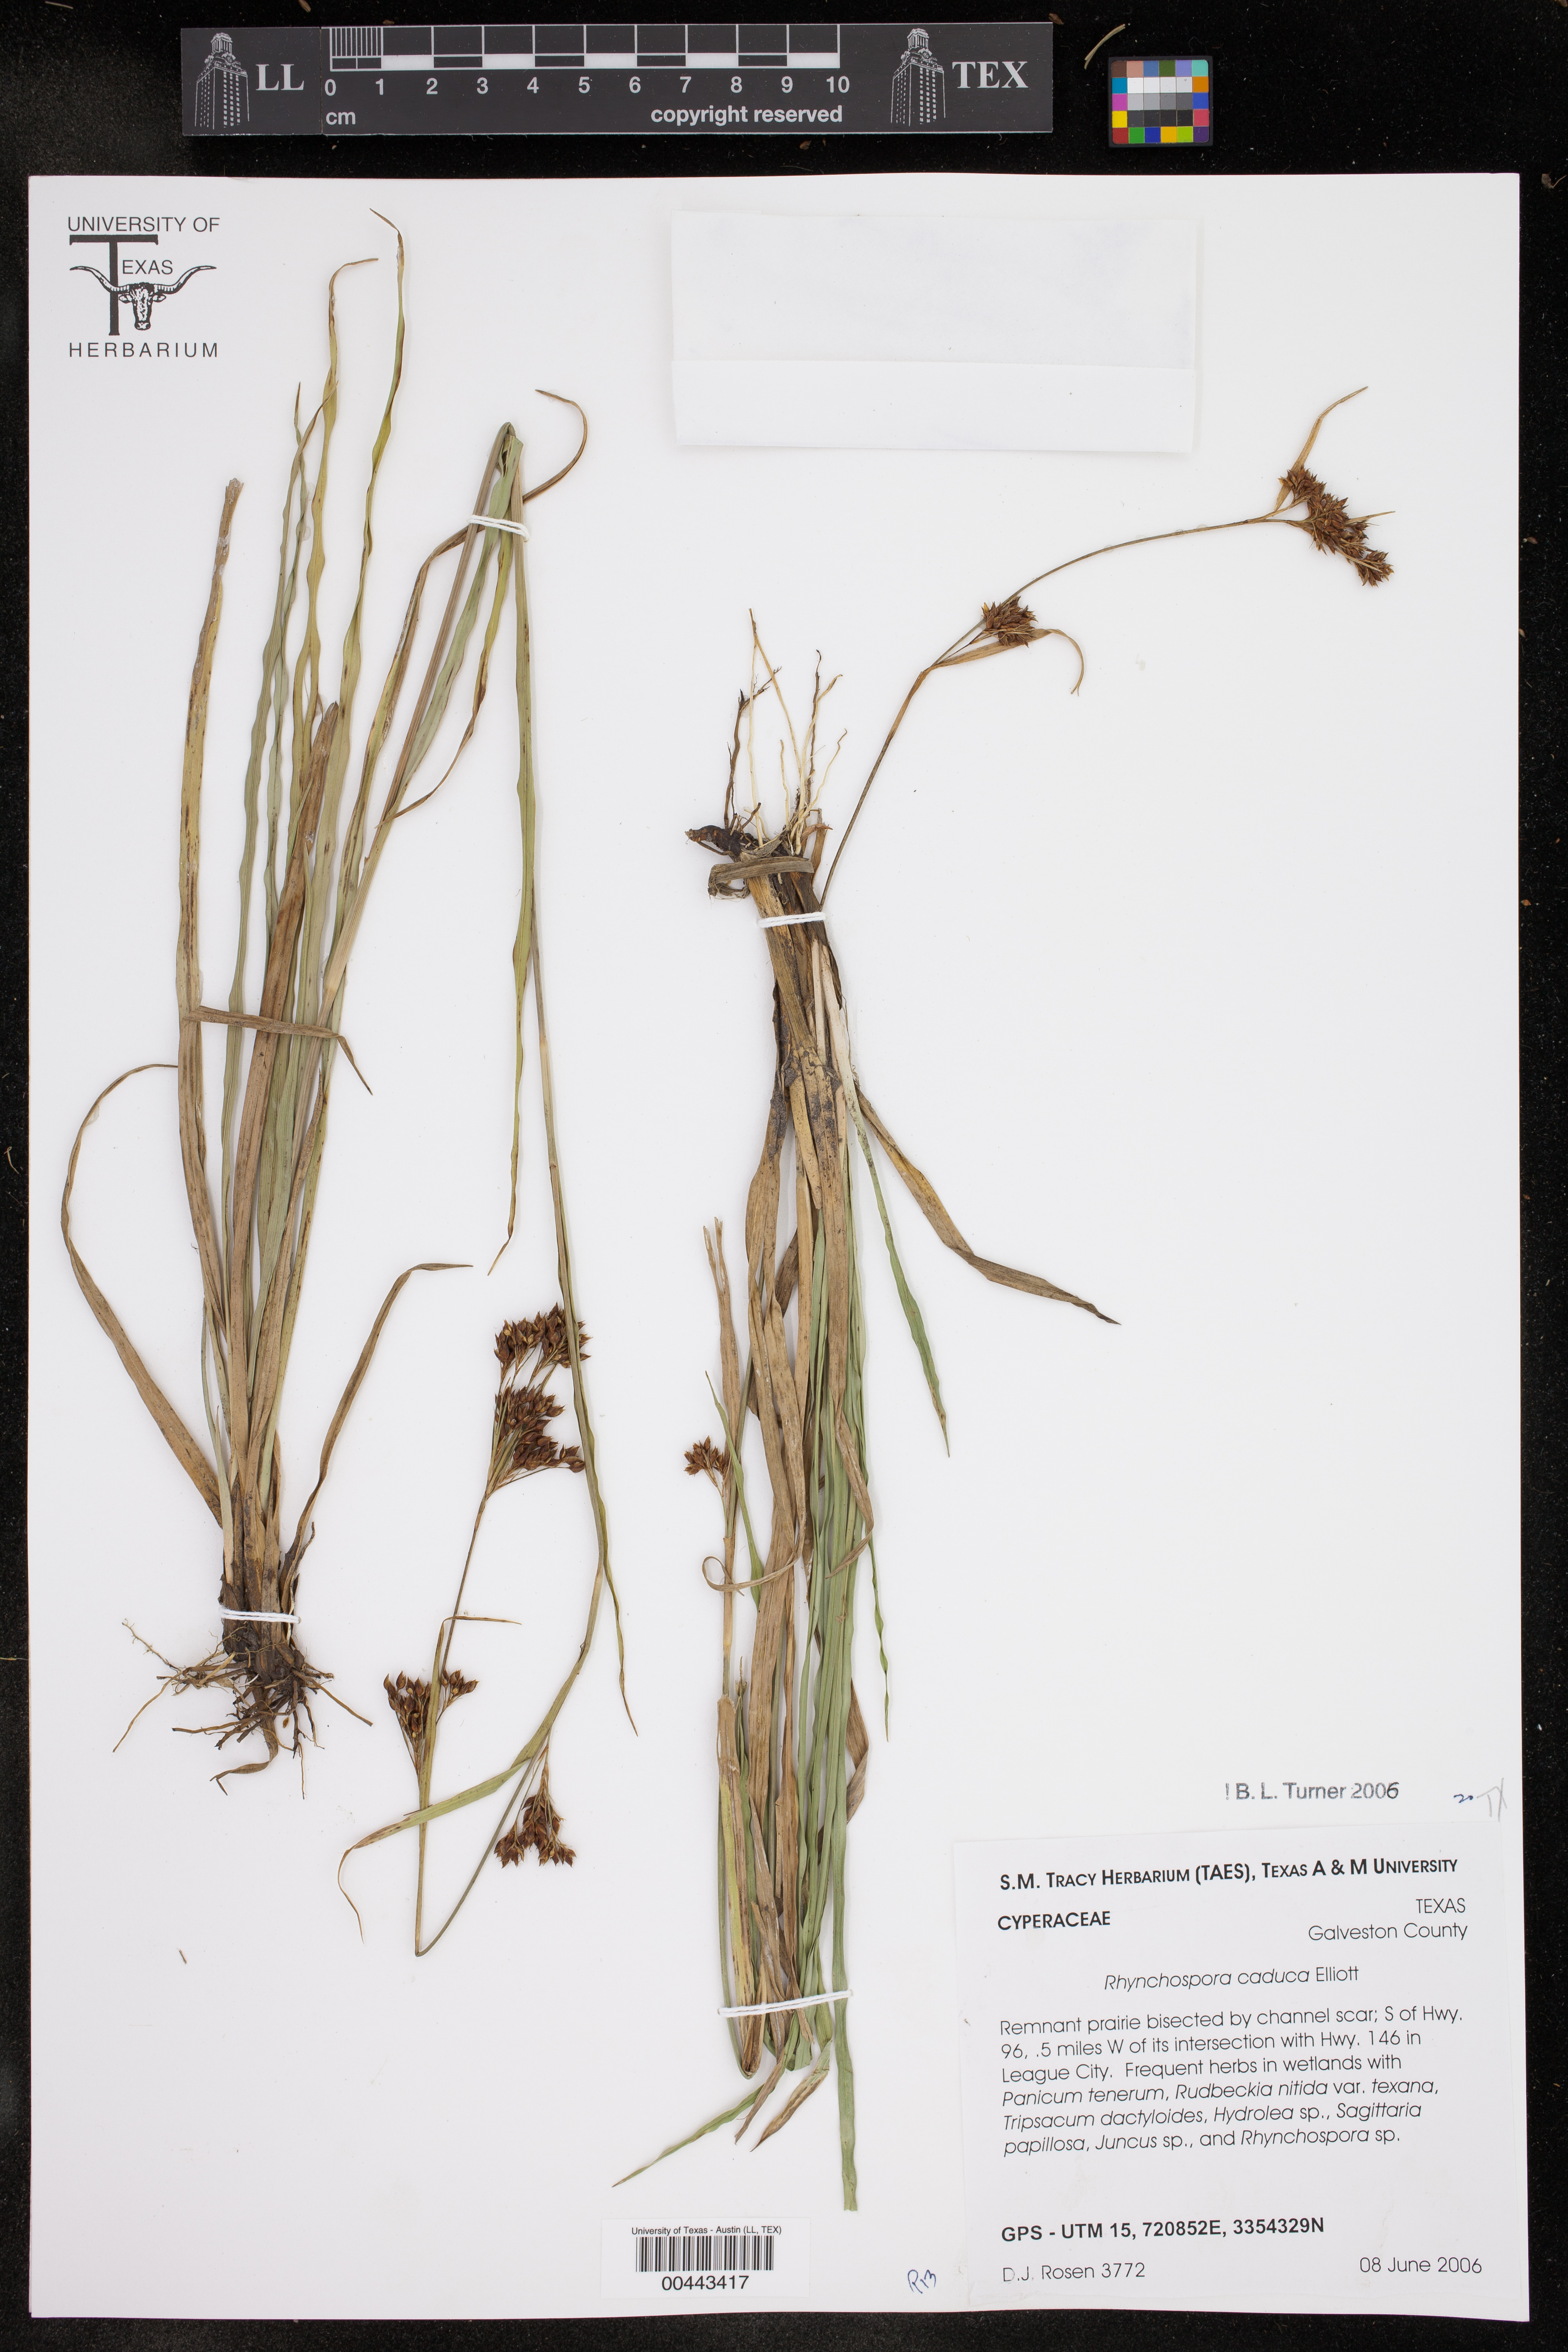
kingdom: Plantae
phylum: Tracheophyta
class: Liliopsida
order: Poales
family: Cyperaceae
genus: Rhynchospora
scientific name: Rhynchospora caduca
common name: Anglestem beaksedge
